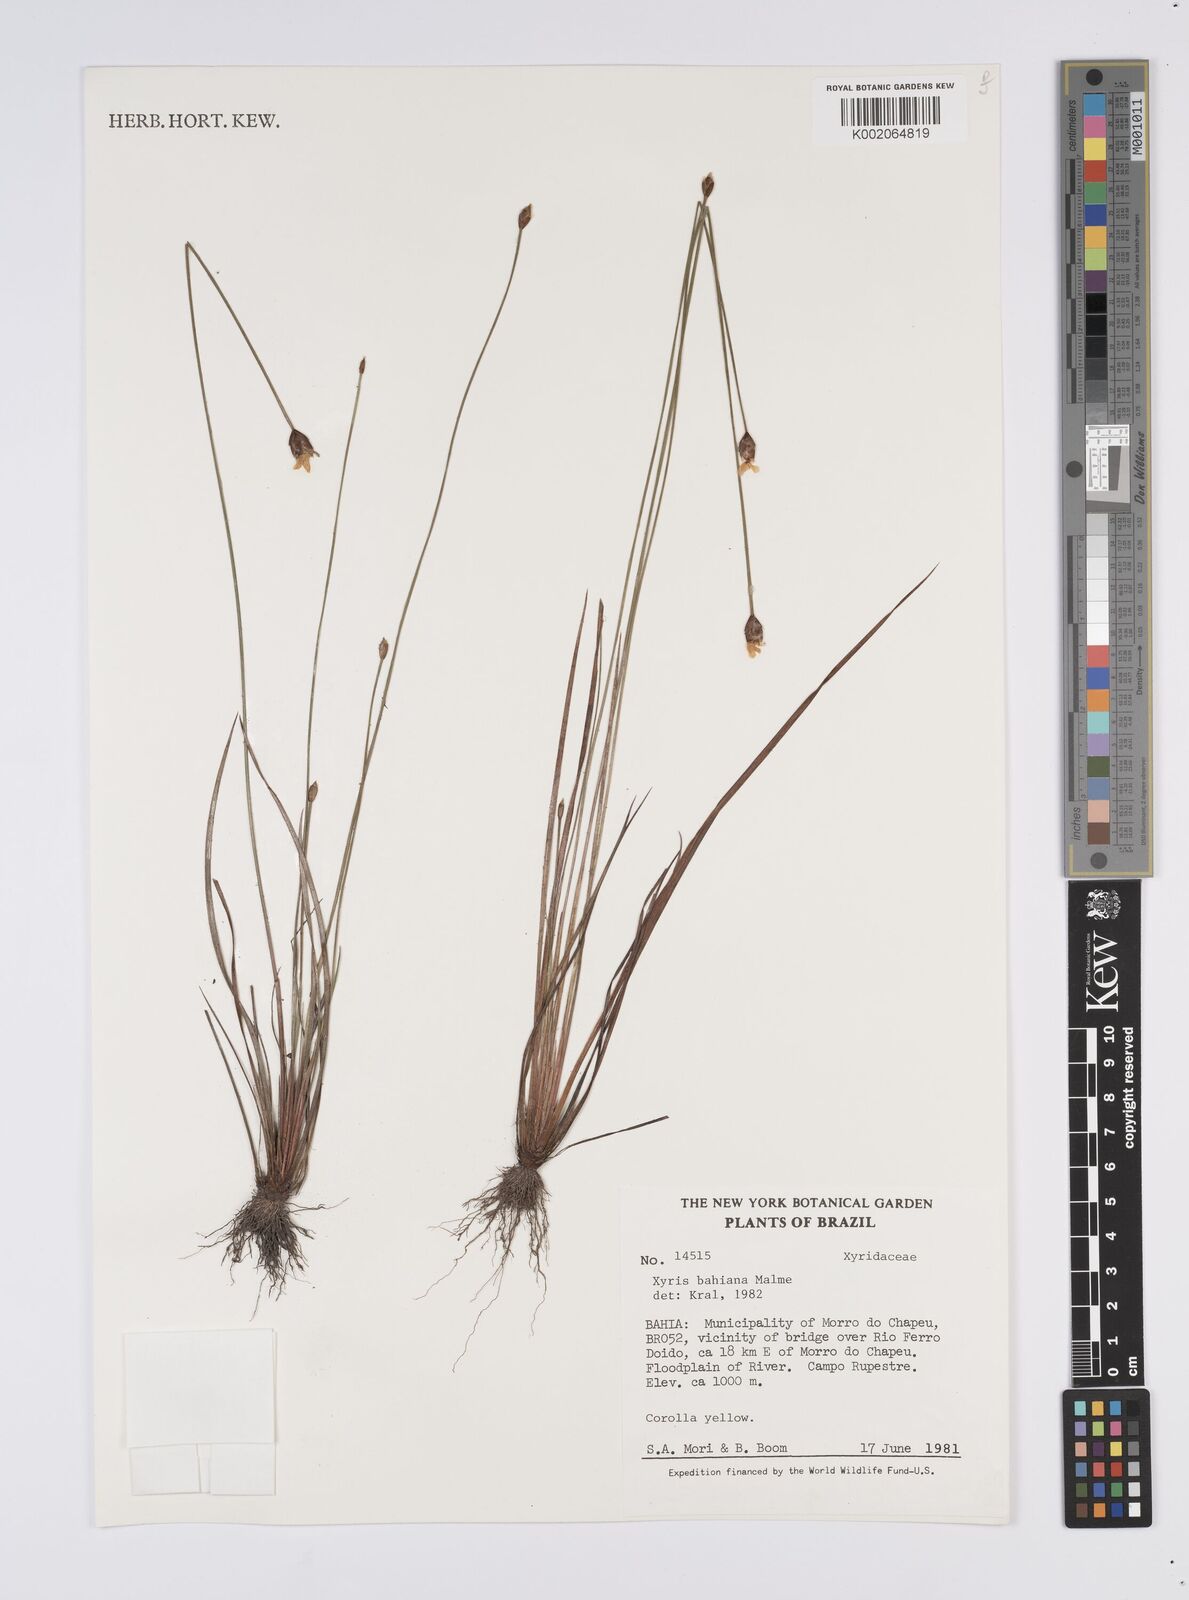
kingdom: Plantae
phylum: Tracheophyta
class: Liliopsida
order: Poales
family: Xyridaceae
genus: Xyris
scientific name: Xyris bahiana
